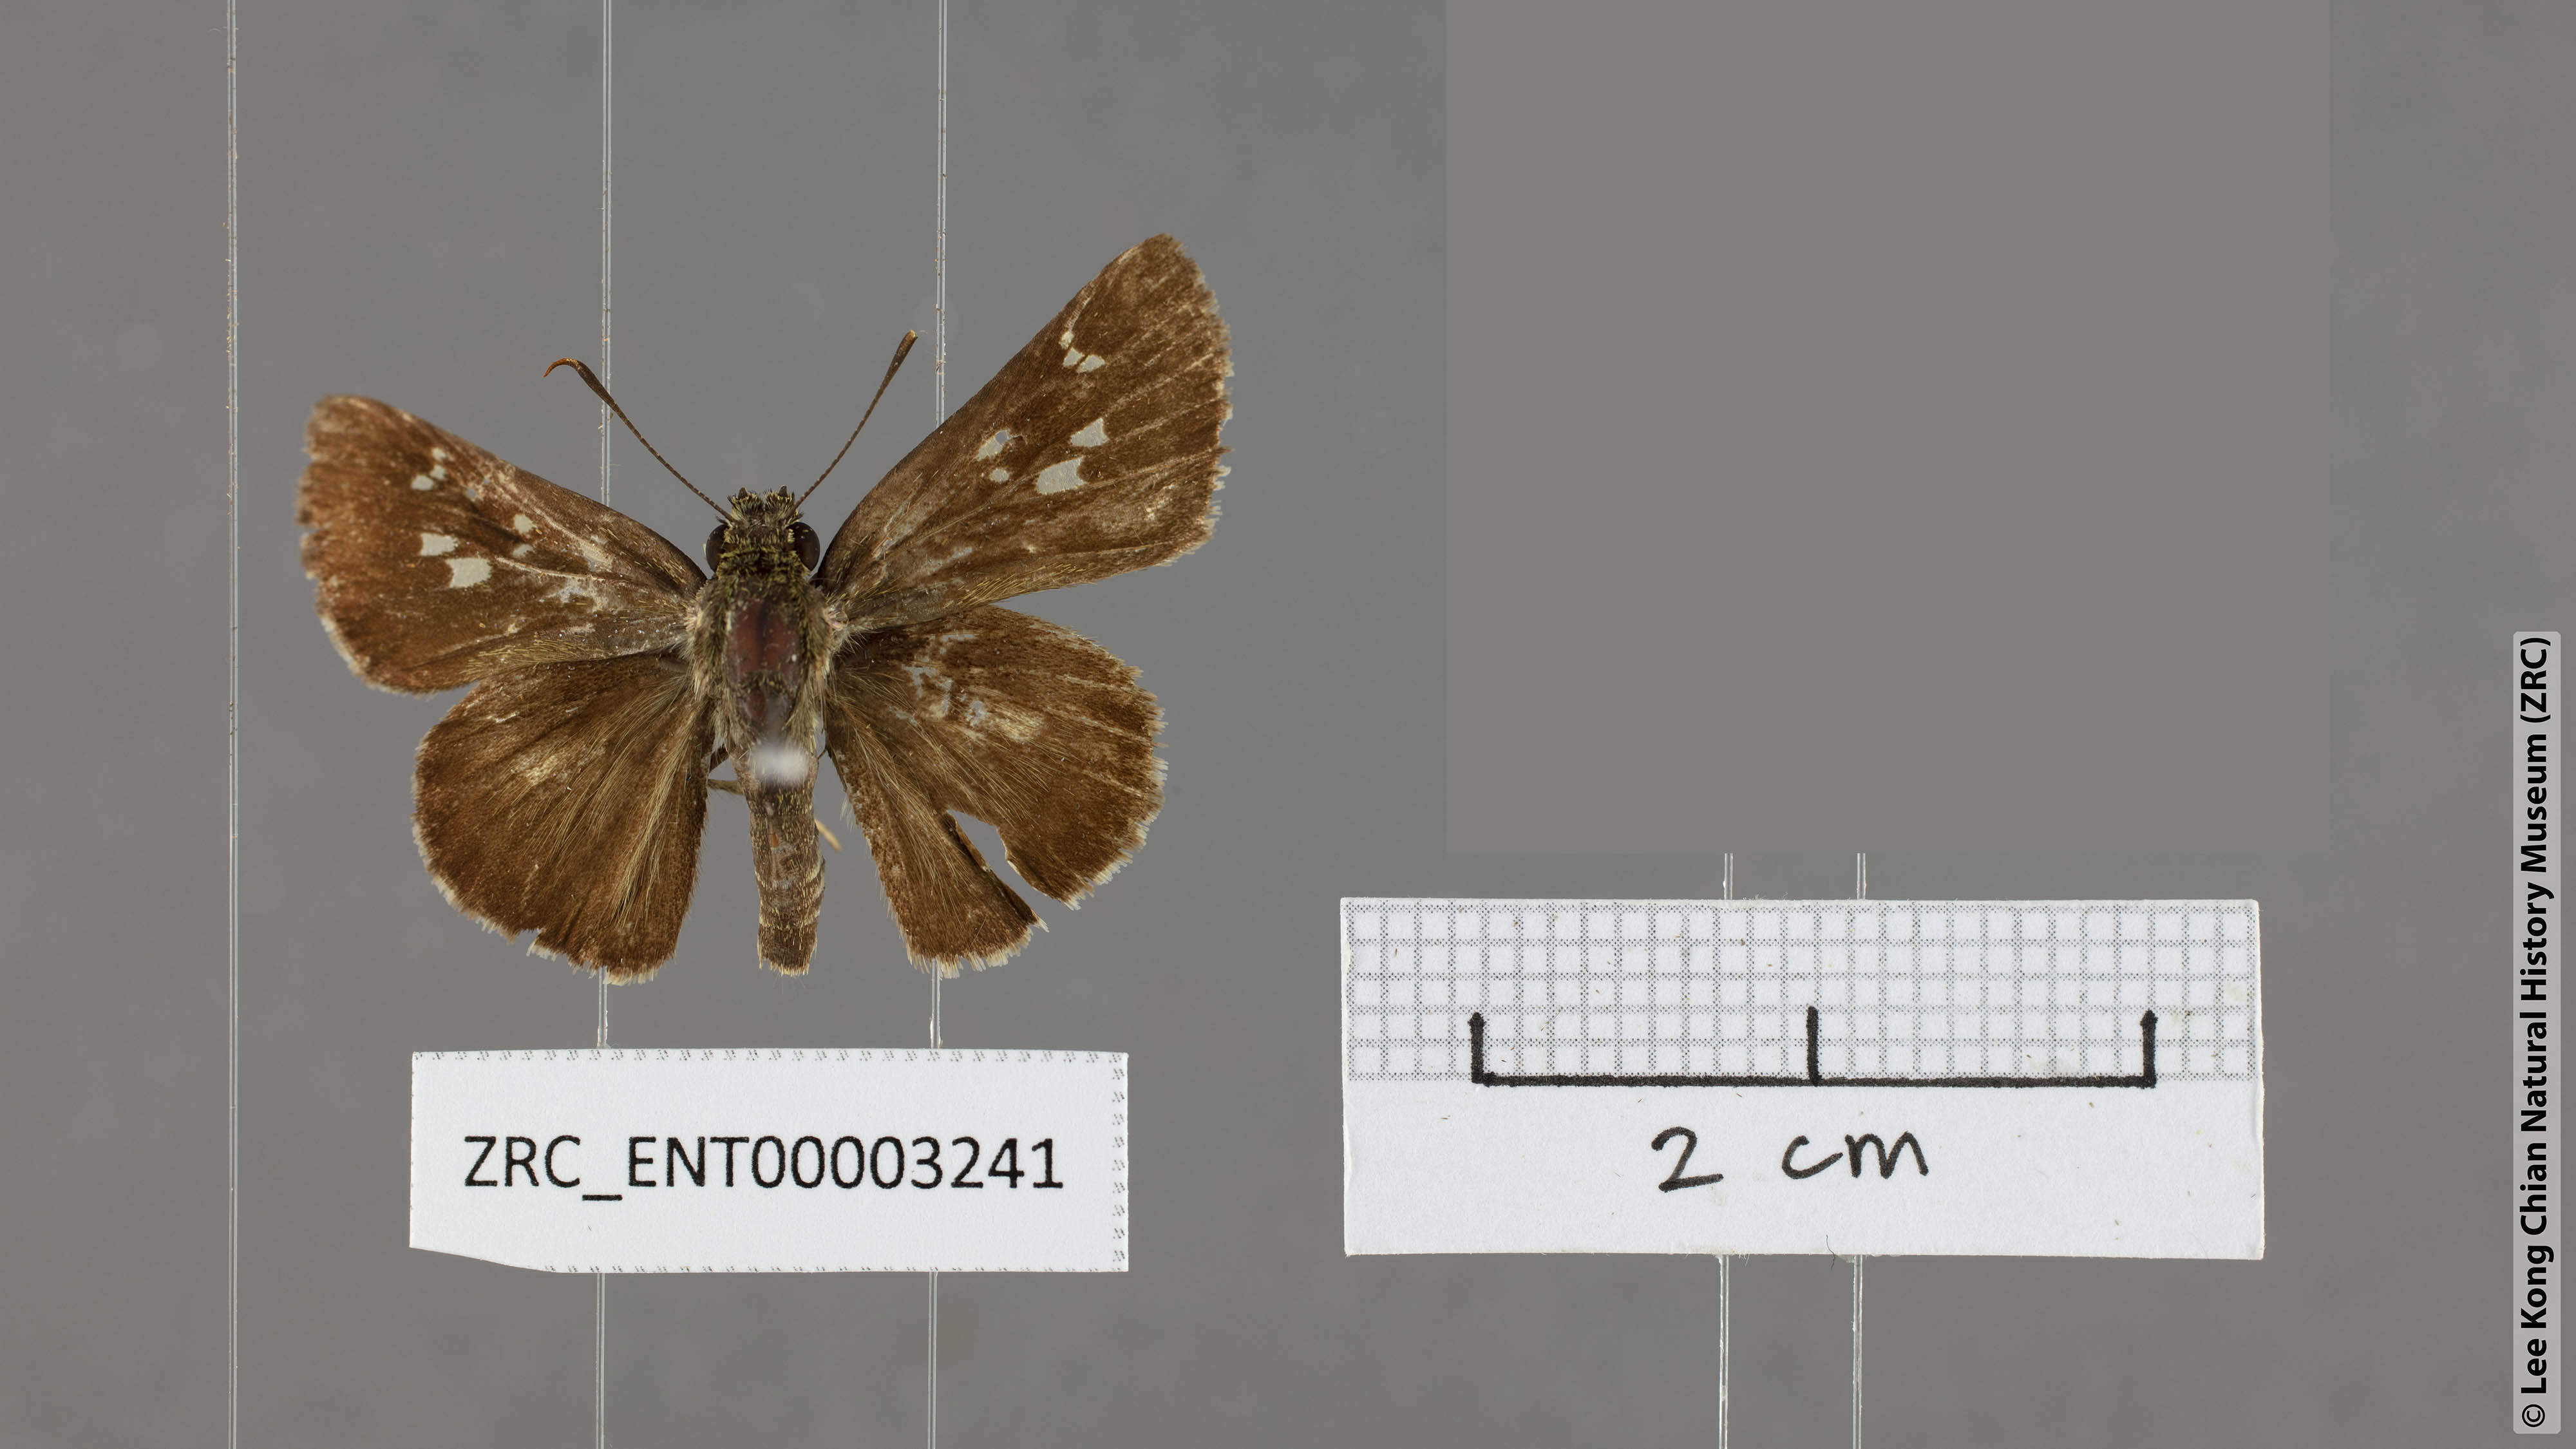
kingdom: Animalia
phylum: Arthropoda
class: Insecta
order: Lepidoptera
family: Hesperiidae
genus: Halpe
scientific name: Halpe porus
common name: Moore's ace
